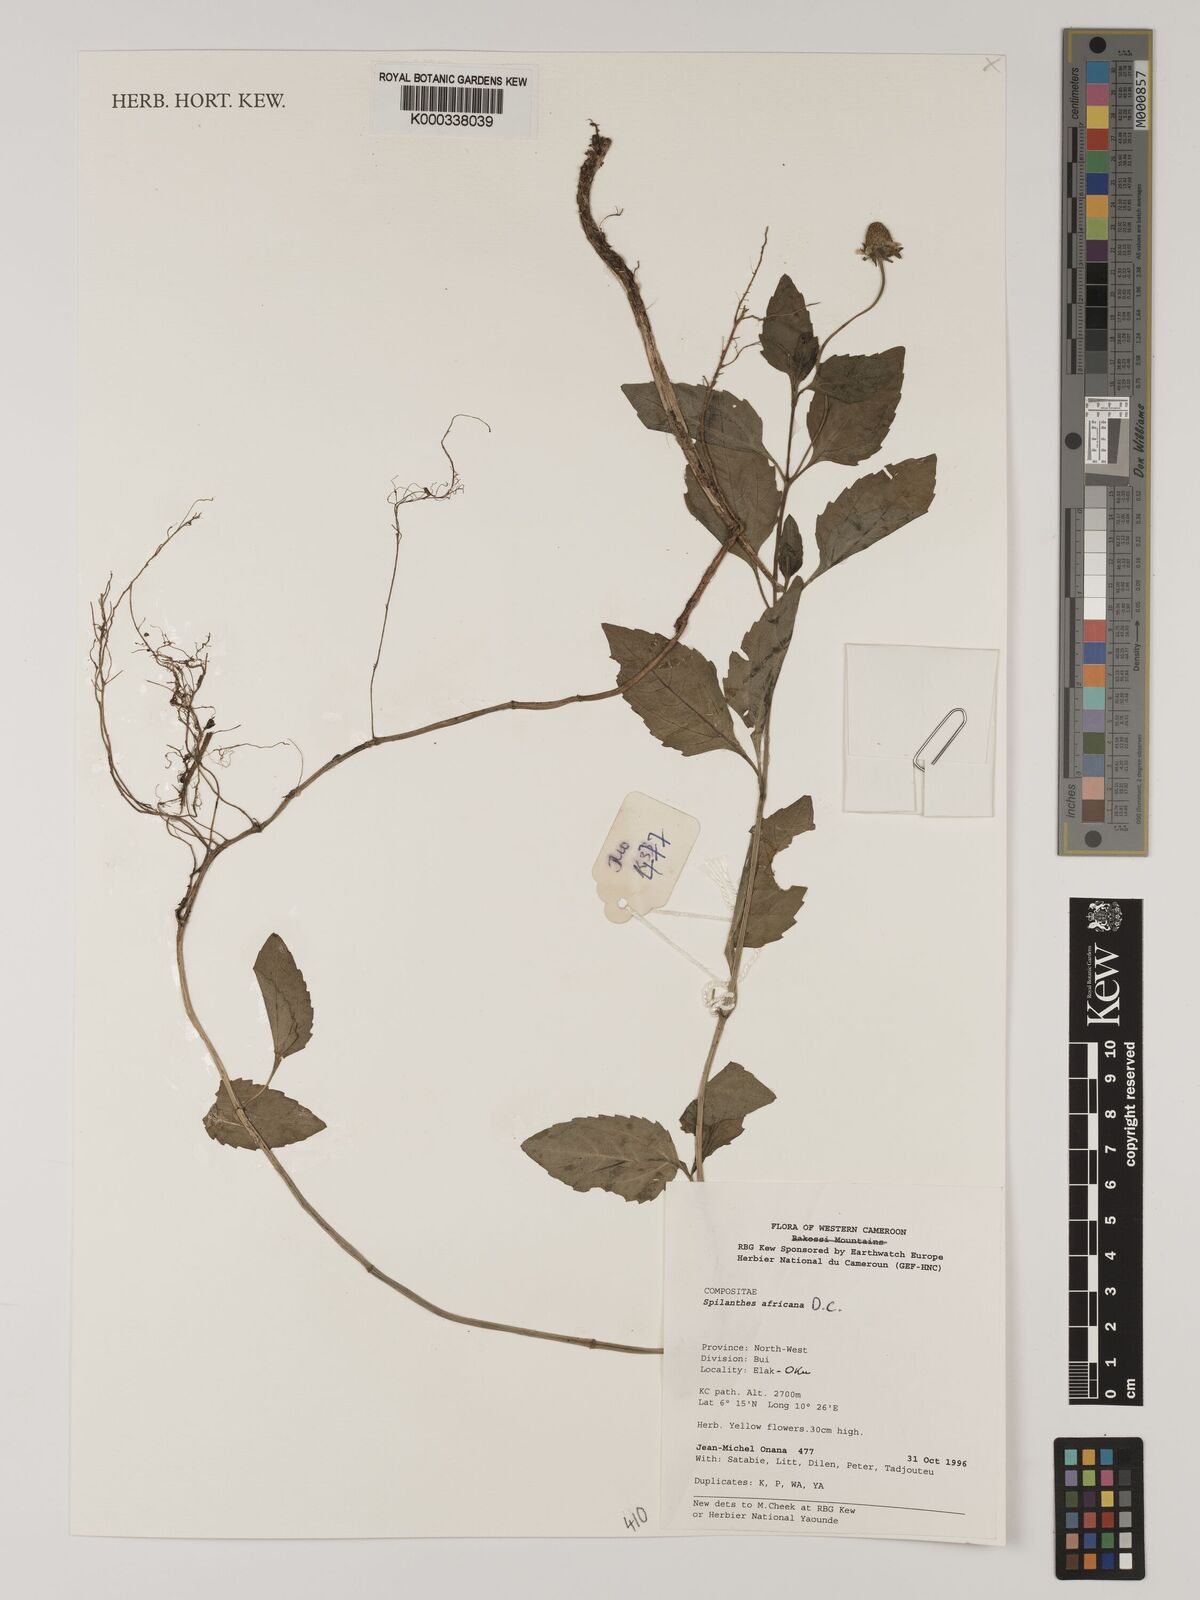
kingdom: Plantae
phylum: Tracheophyta
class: Magnoliopsida
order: Asterales
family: Asteraceae
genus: Acmella
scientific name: Acmella caulirhiza
